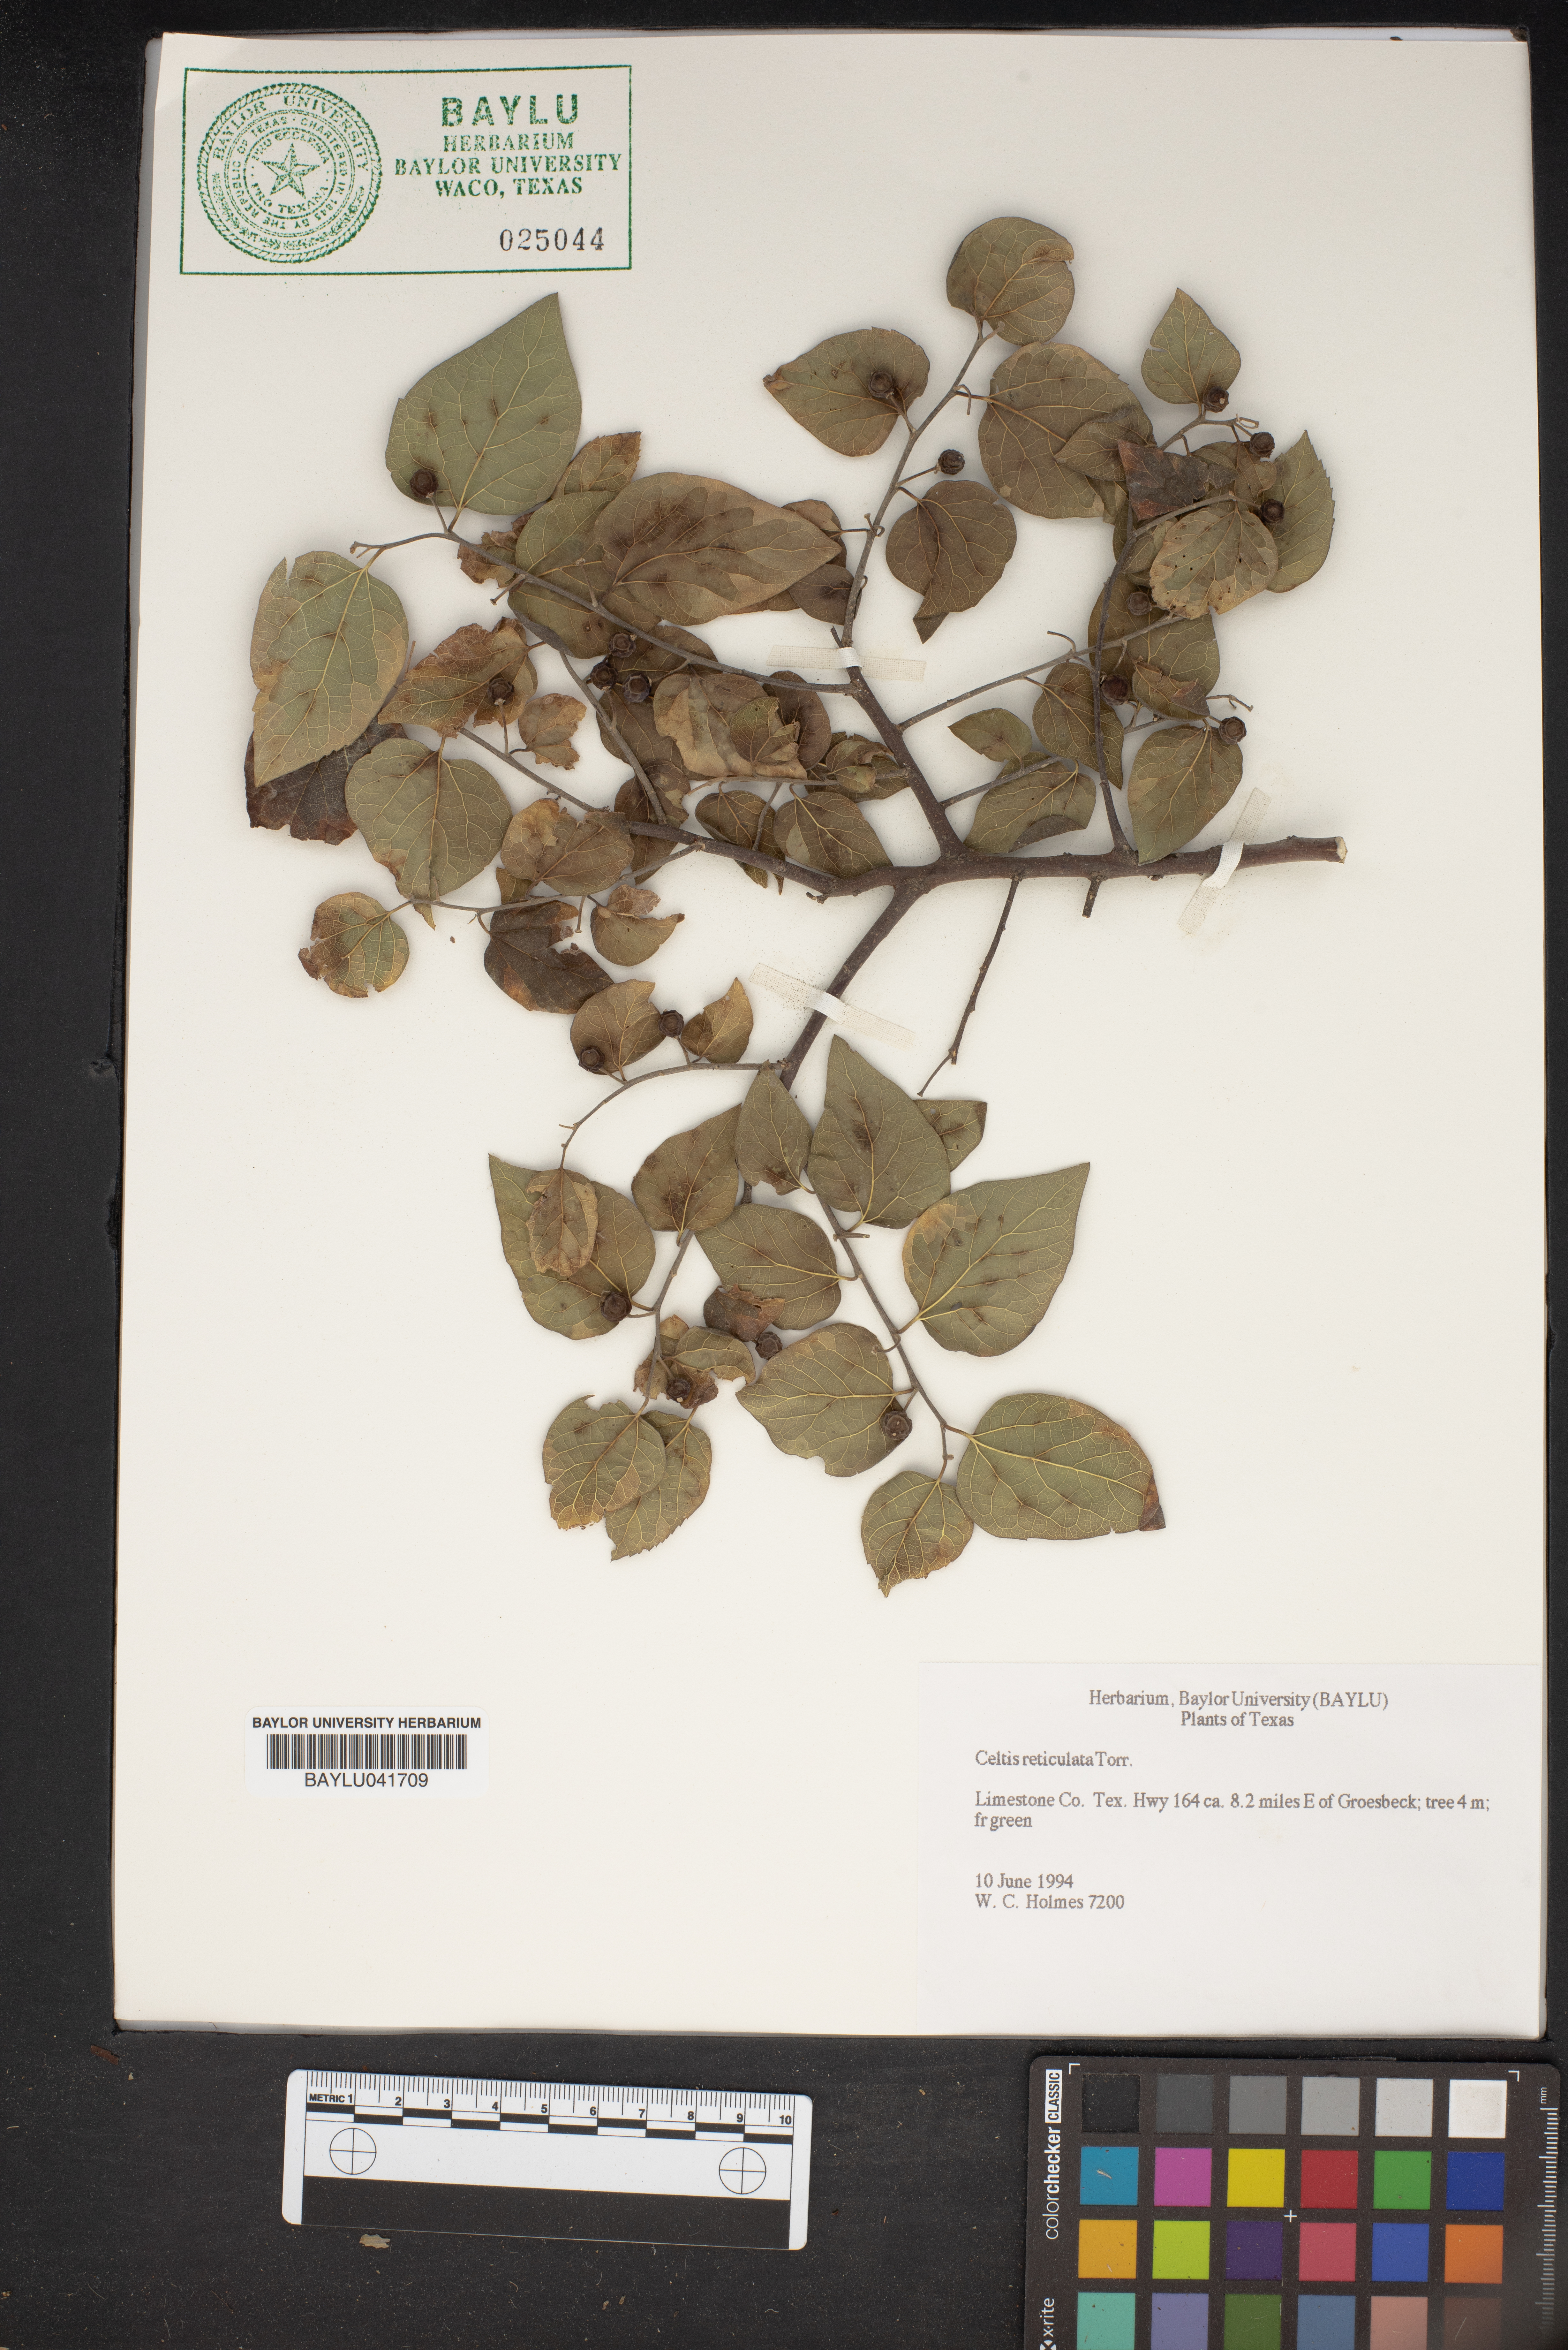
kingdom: Plantae
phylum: Tracheophyta
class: Magnoliopsida
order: Rosales
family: Cannabaceae
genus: Celtis
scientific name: Celtis reticulata
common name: Netleaf hackberry
